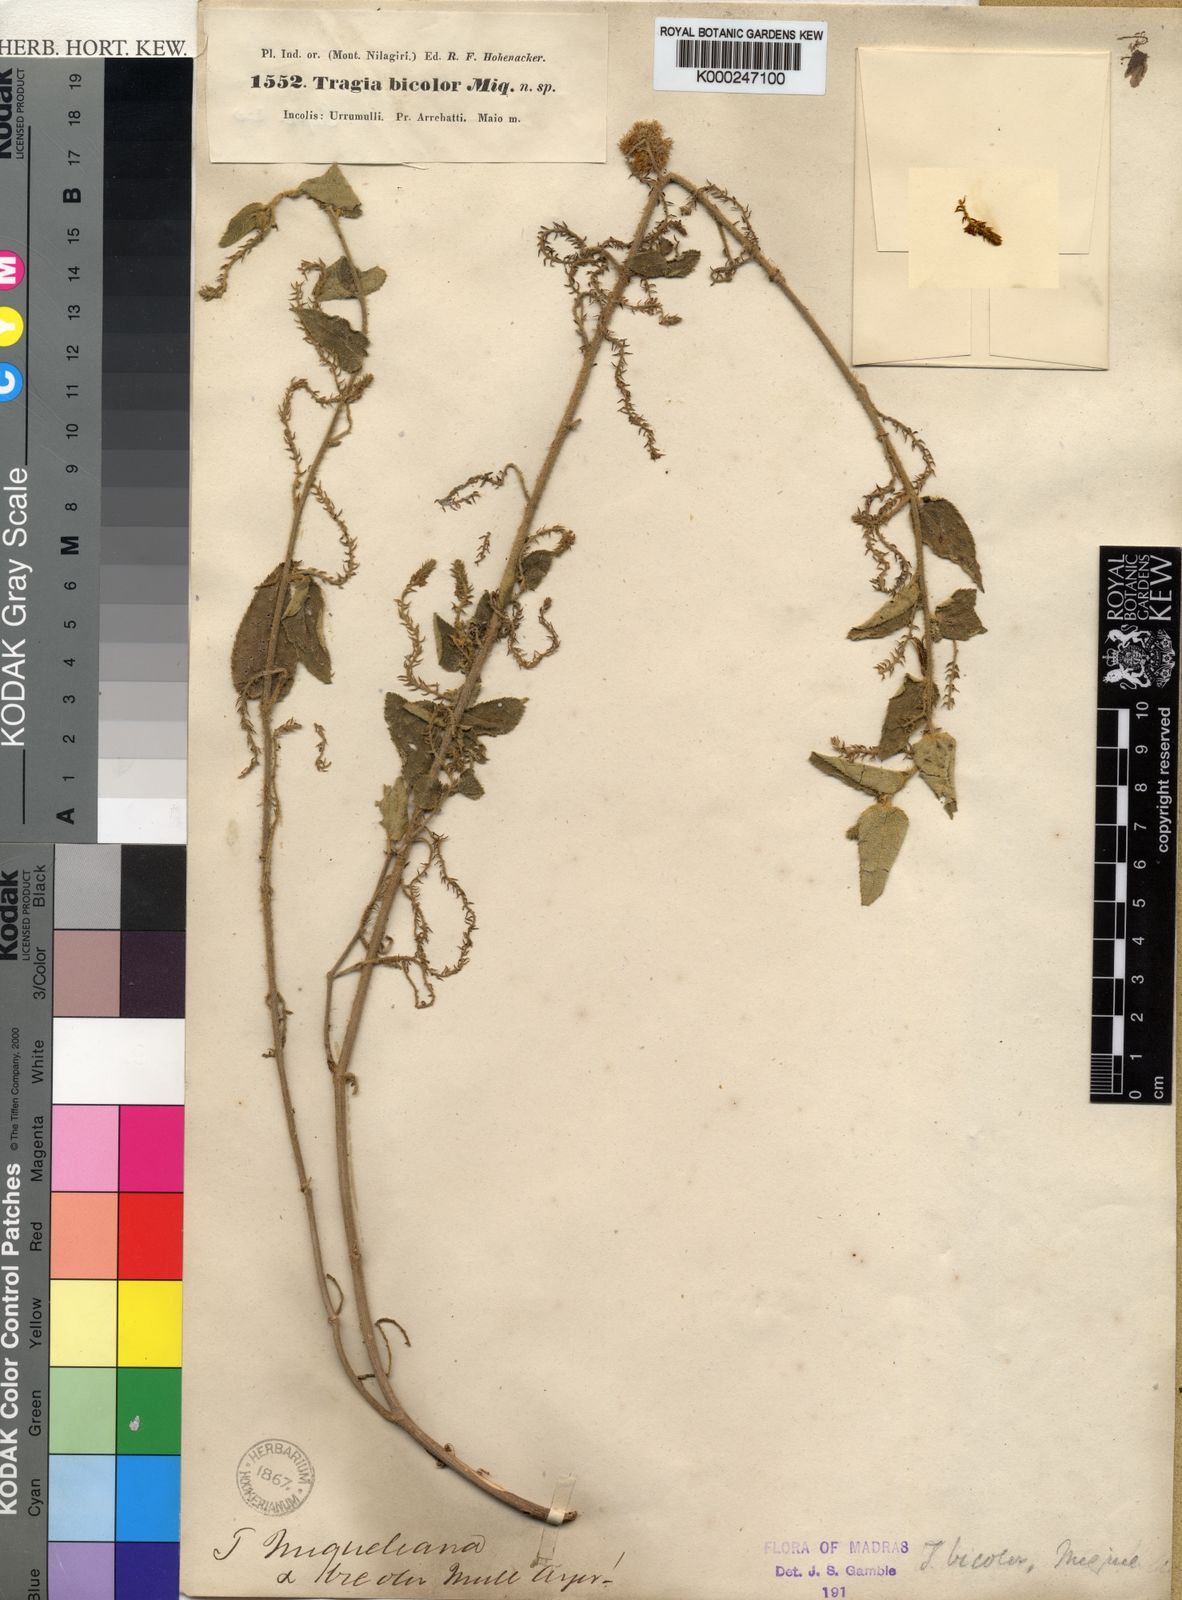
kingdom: Plantae
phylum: Tracheophyta
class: Magnoliopsida
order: Malpighiales
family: Euphorbiaceae
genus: Tragia
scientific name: Tragia bicolor
